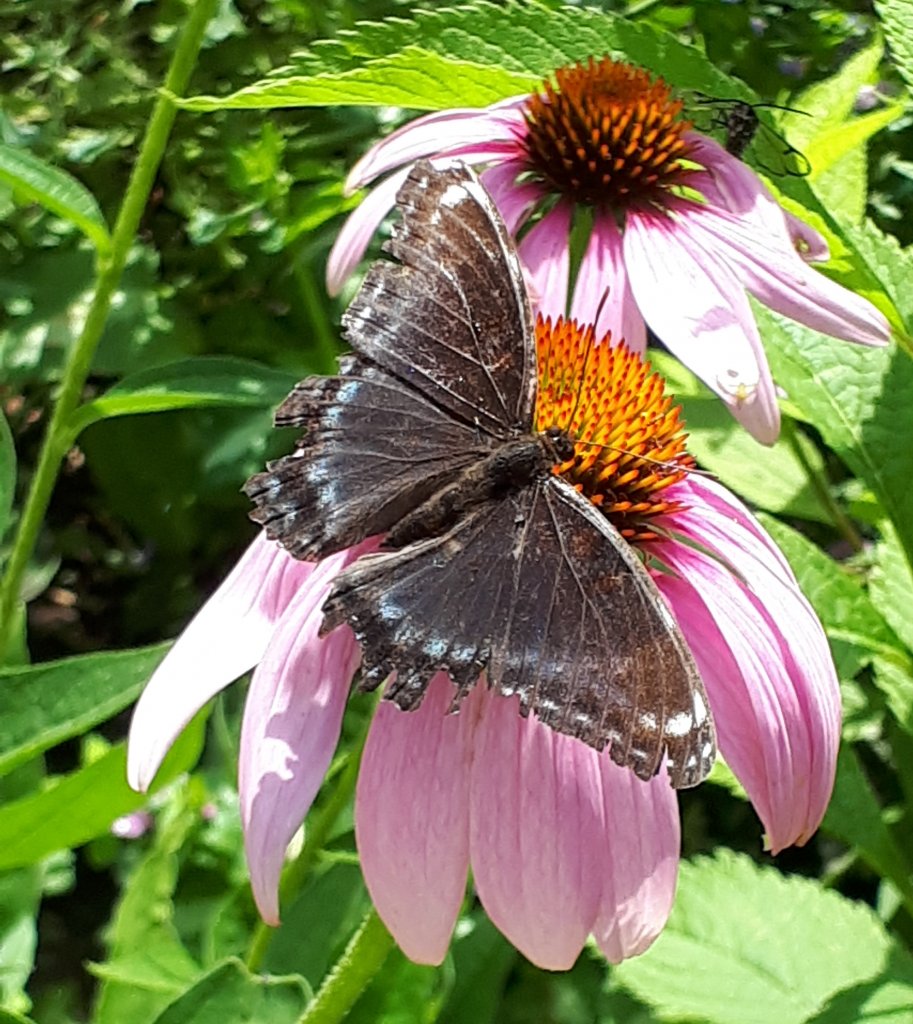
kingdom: Animalia
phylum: Arthropoda
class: Insecta
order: Lepidoptera
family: Nymphalidae
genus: Limenitis
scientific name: Limenitis astyanax
